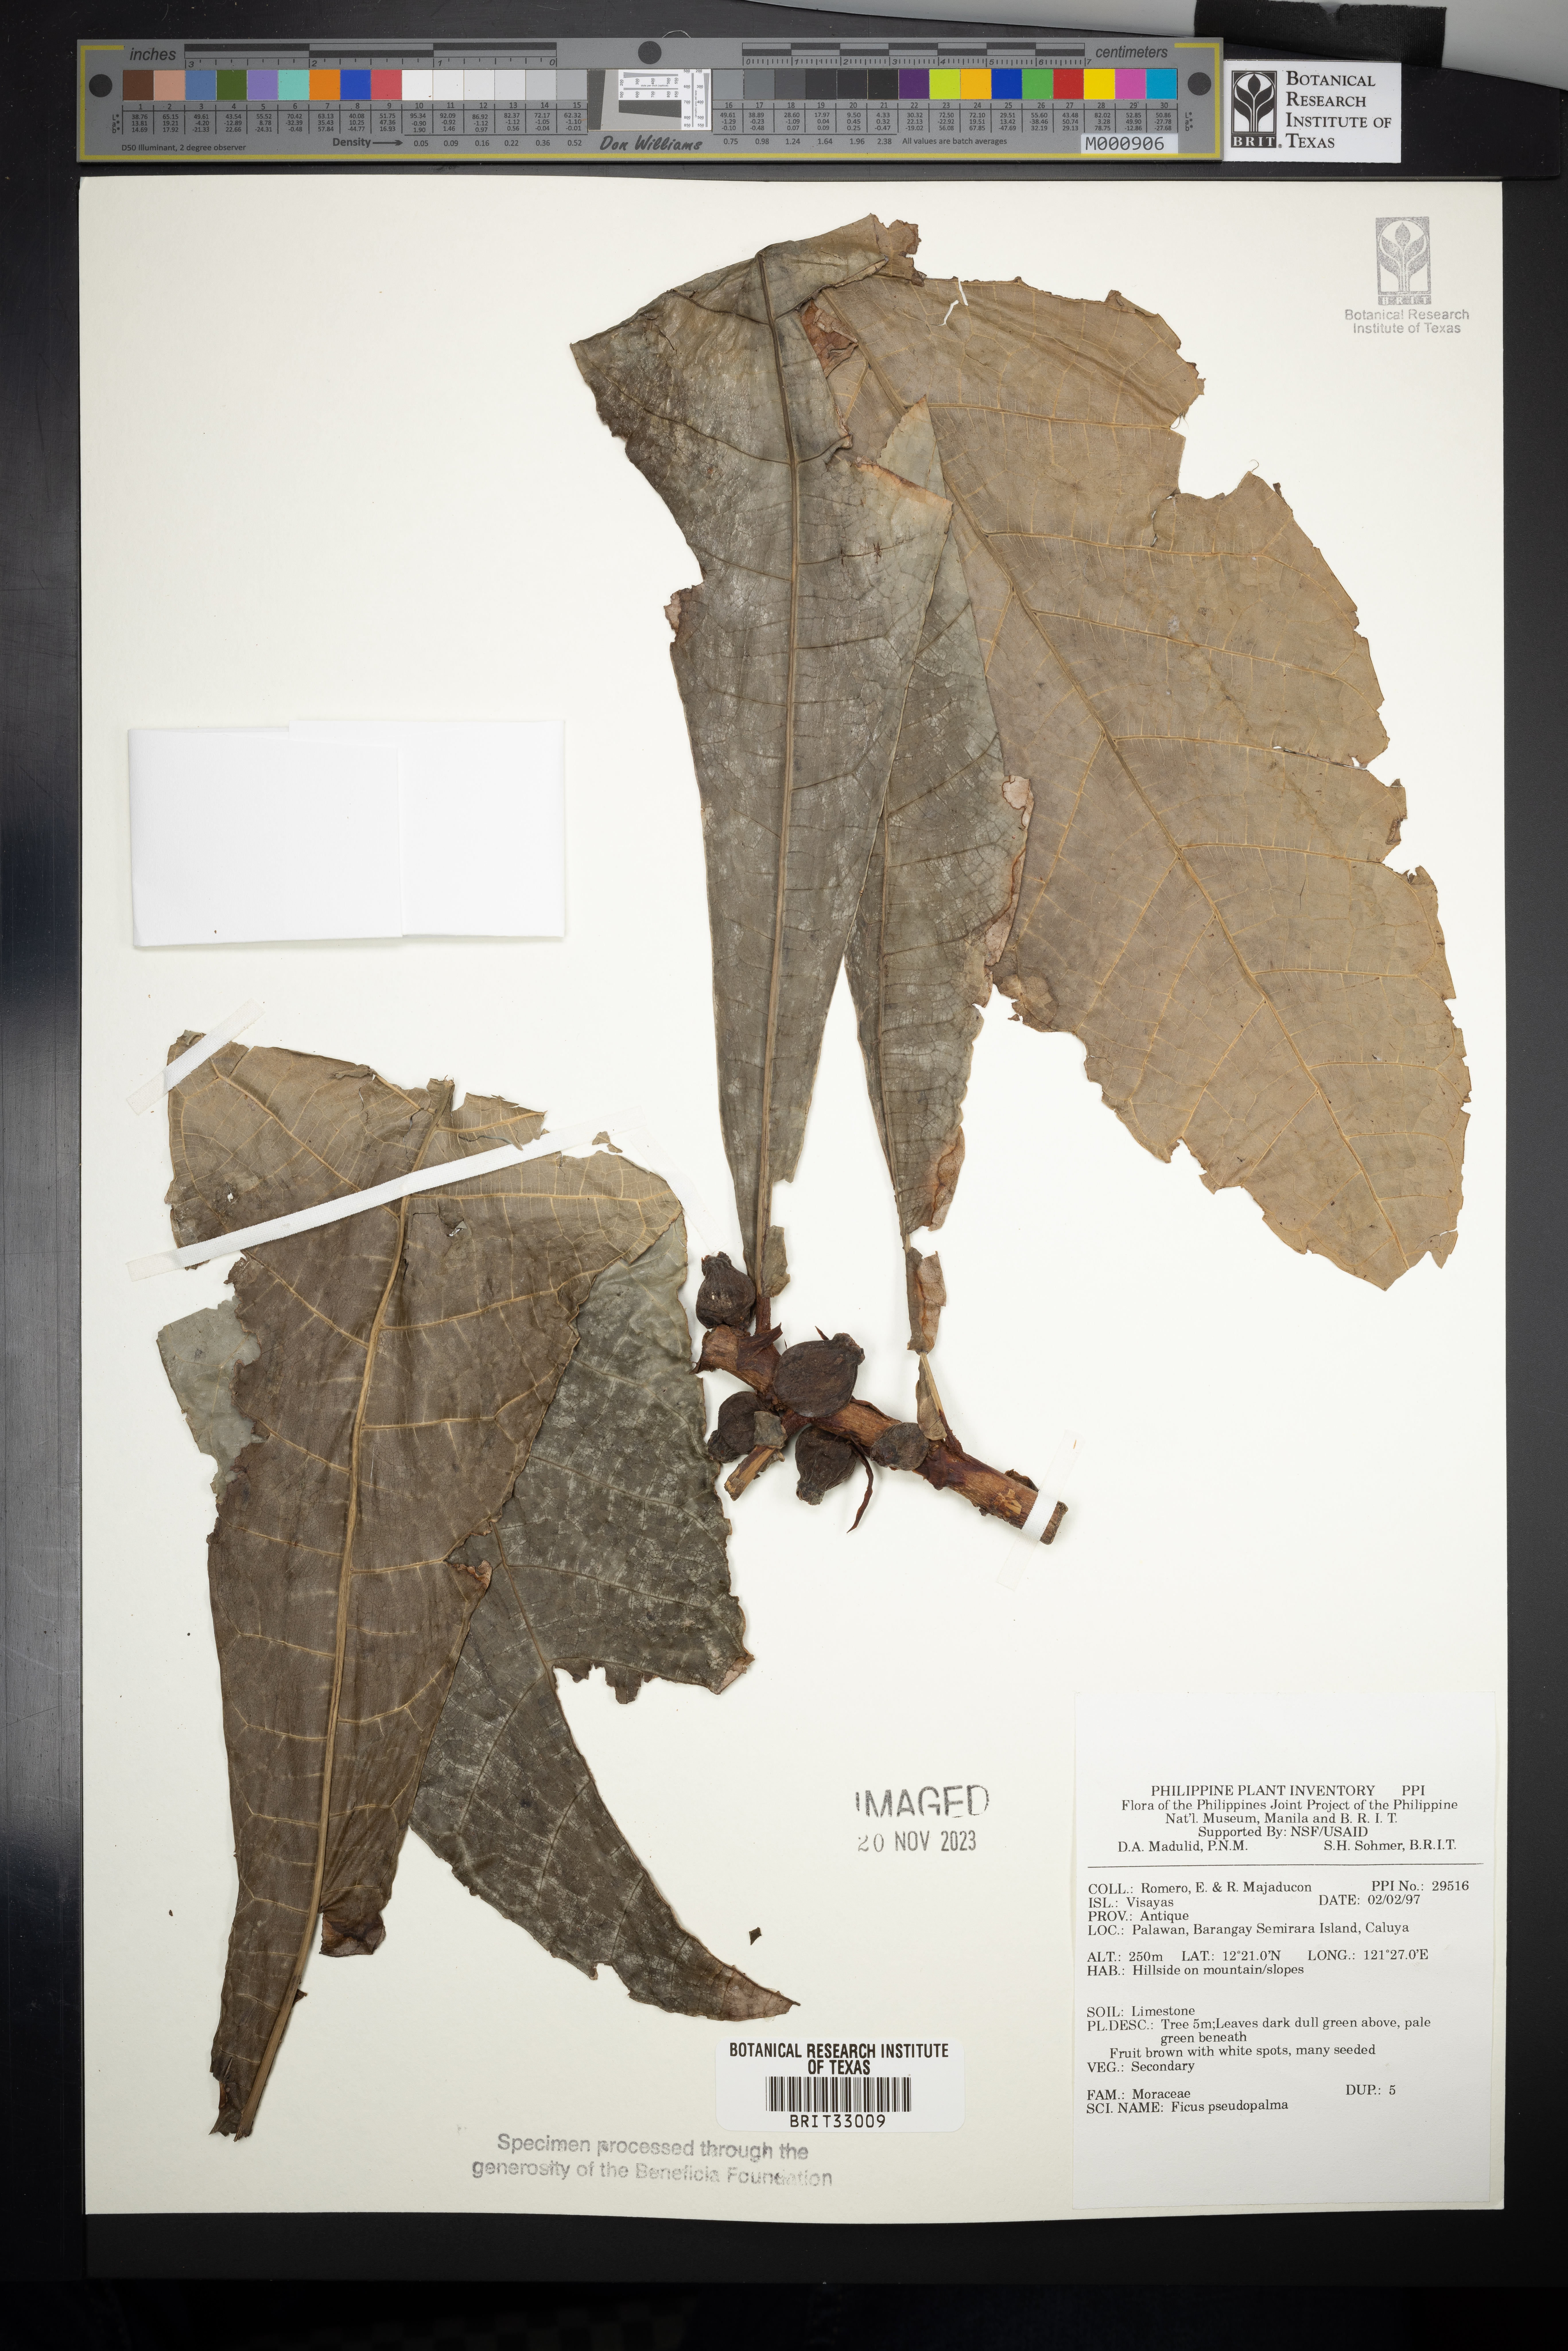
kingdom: Plantae
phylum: Tracheophyta
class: Magnoliopsida
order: Rosales
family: Moraceae
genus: Ficus
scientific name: Ficus pseudopalma
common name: Palm-like fig
